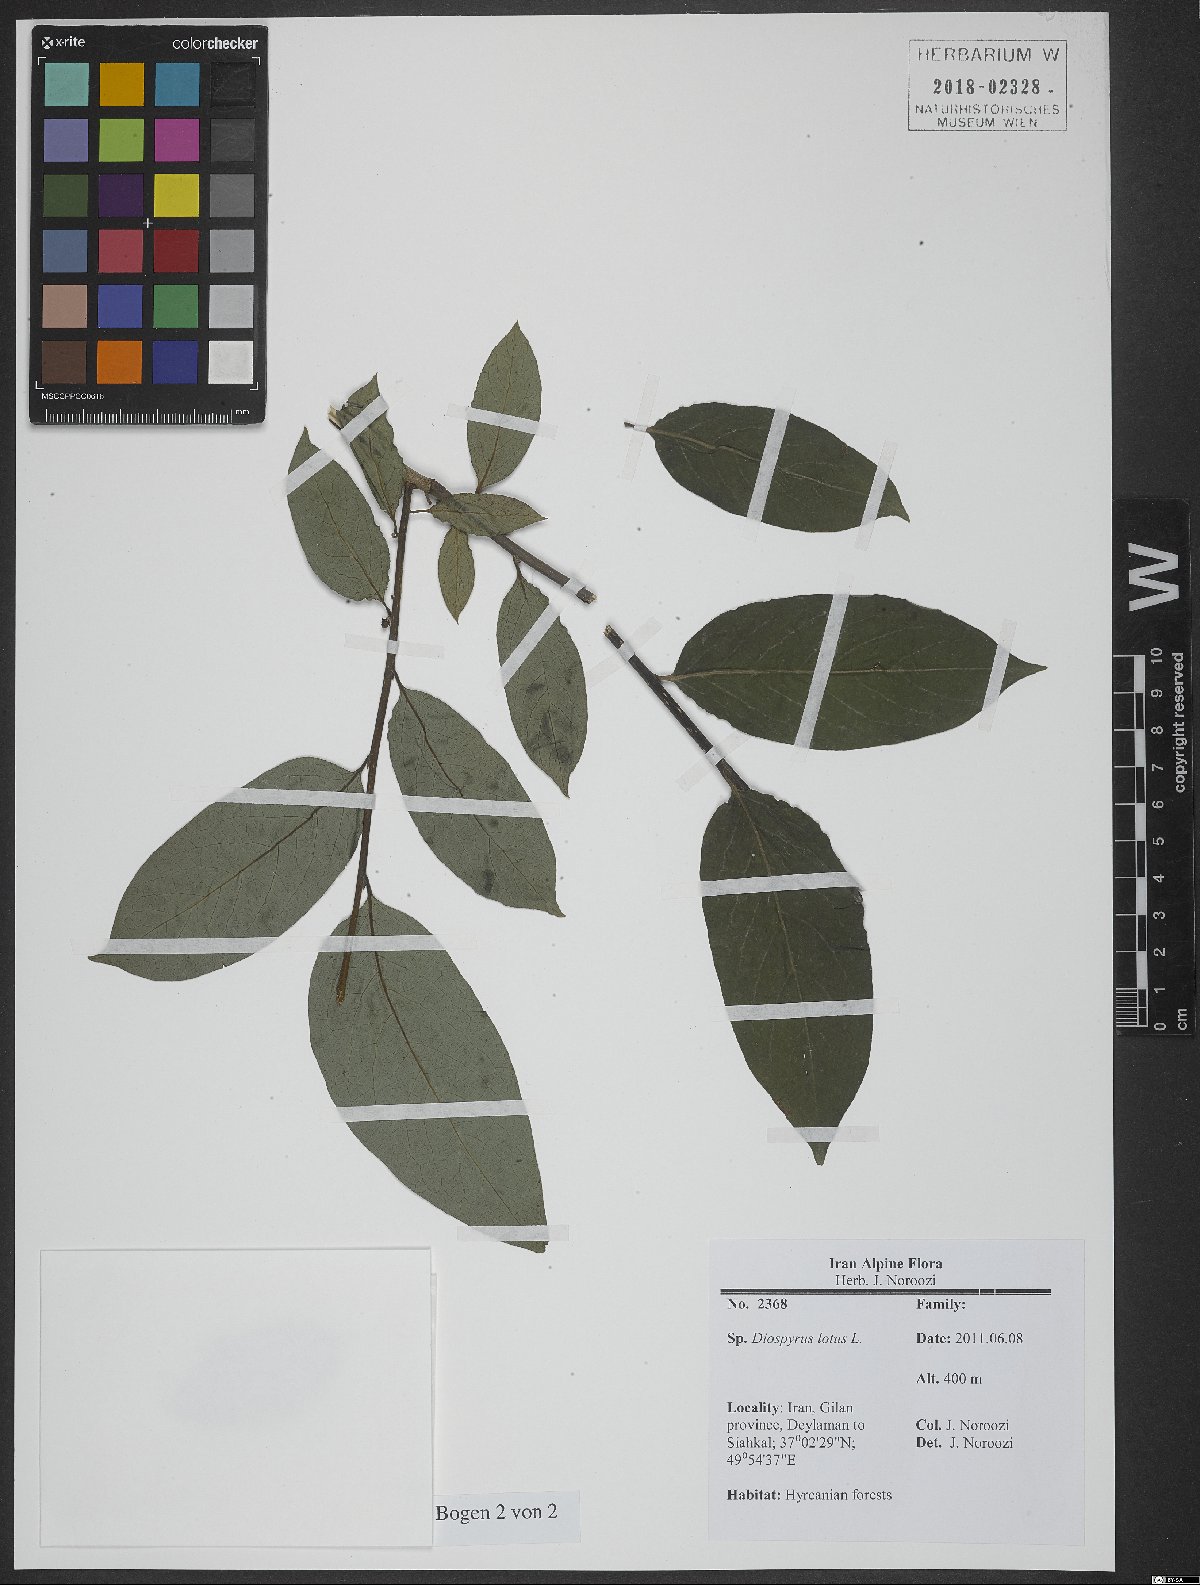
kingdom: Plantae
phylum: Tracheophyta
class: Magnoliopsida
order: Ericales
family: Ebenaceae
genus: Diospyros
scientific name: Diospyros lotus
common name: Date-plum
